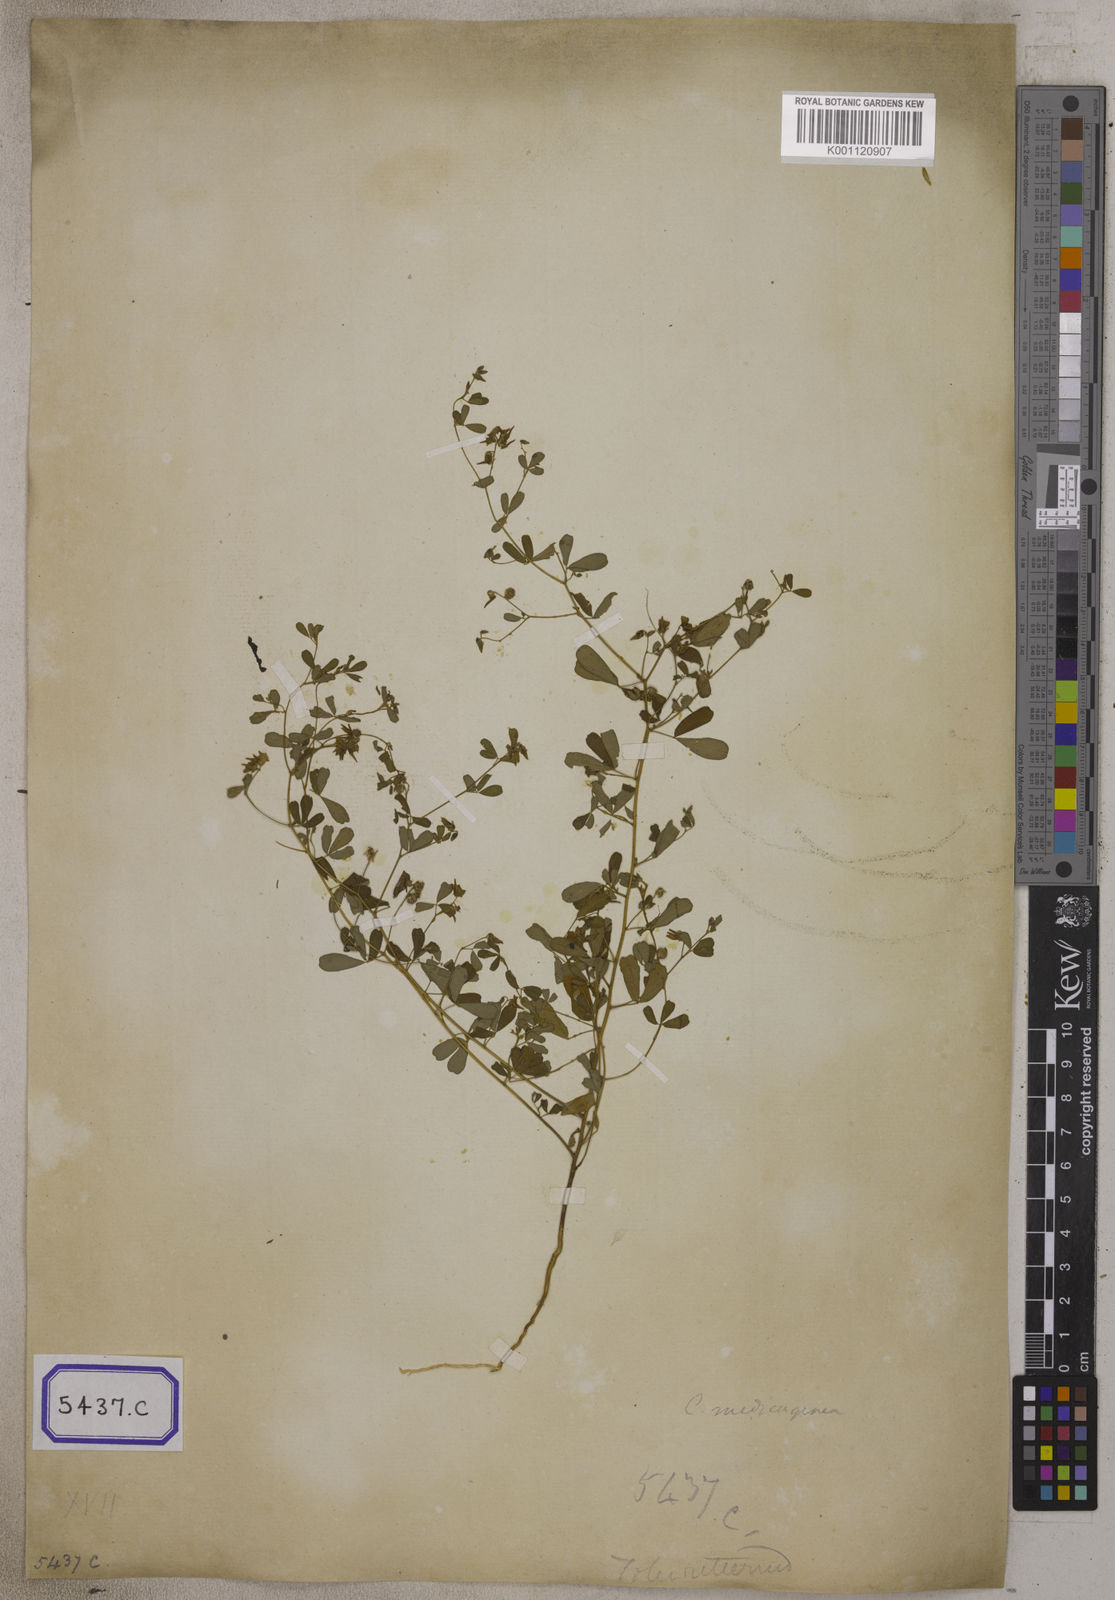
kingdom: Plantae
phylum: Tracheophyta
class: Magnoliopsida
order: Fabales
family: Fabaceae
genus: Crotalaria
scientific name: Crotalaria
